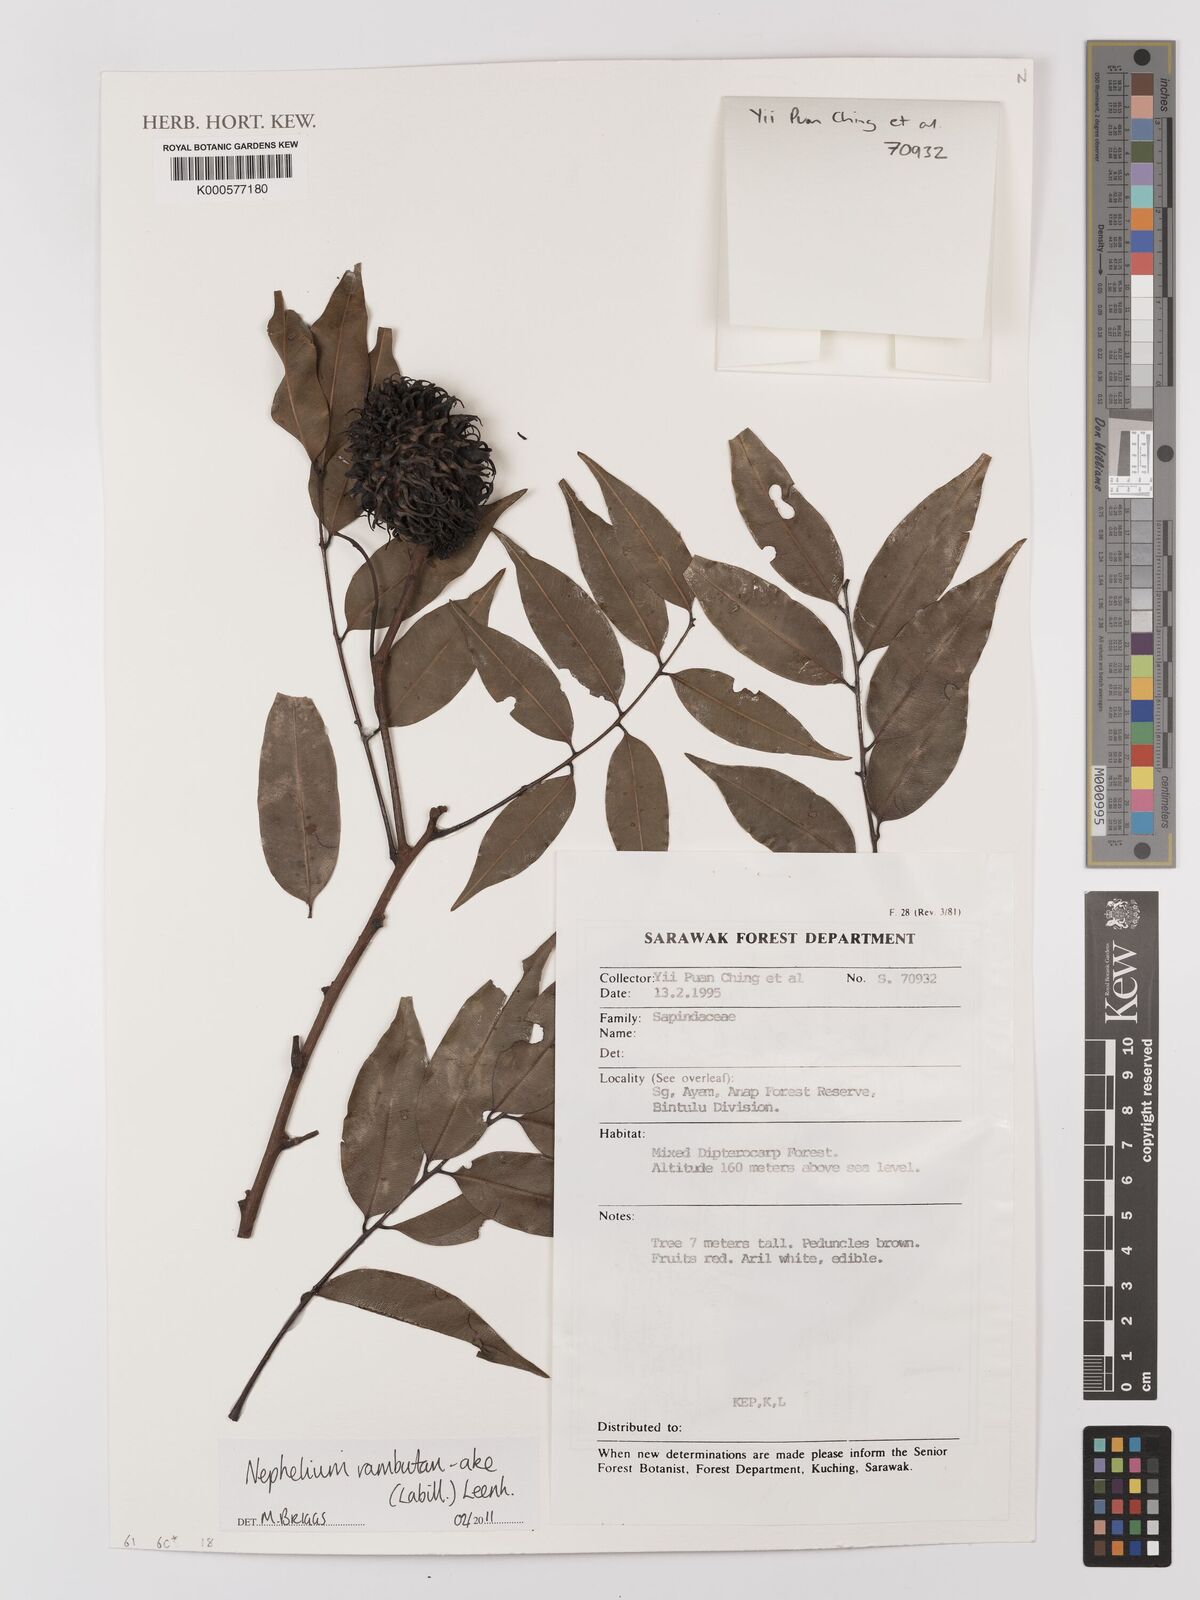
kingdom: Plantae
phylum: Tracheophyta
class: Magnoliopsida
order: Sapindales
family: Sapindaceae
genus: Nephelium
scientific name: Nephelium ramboutan-ake
